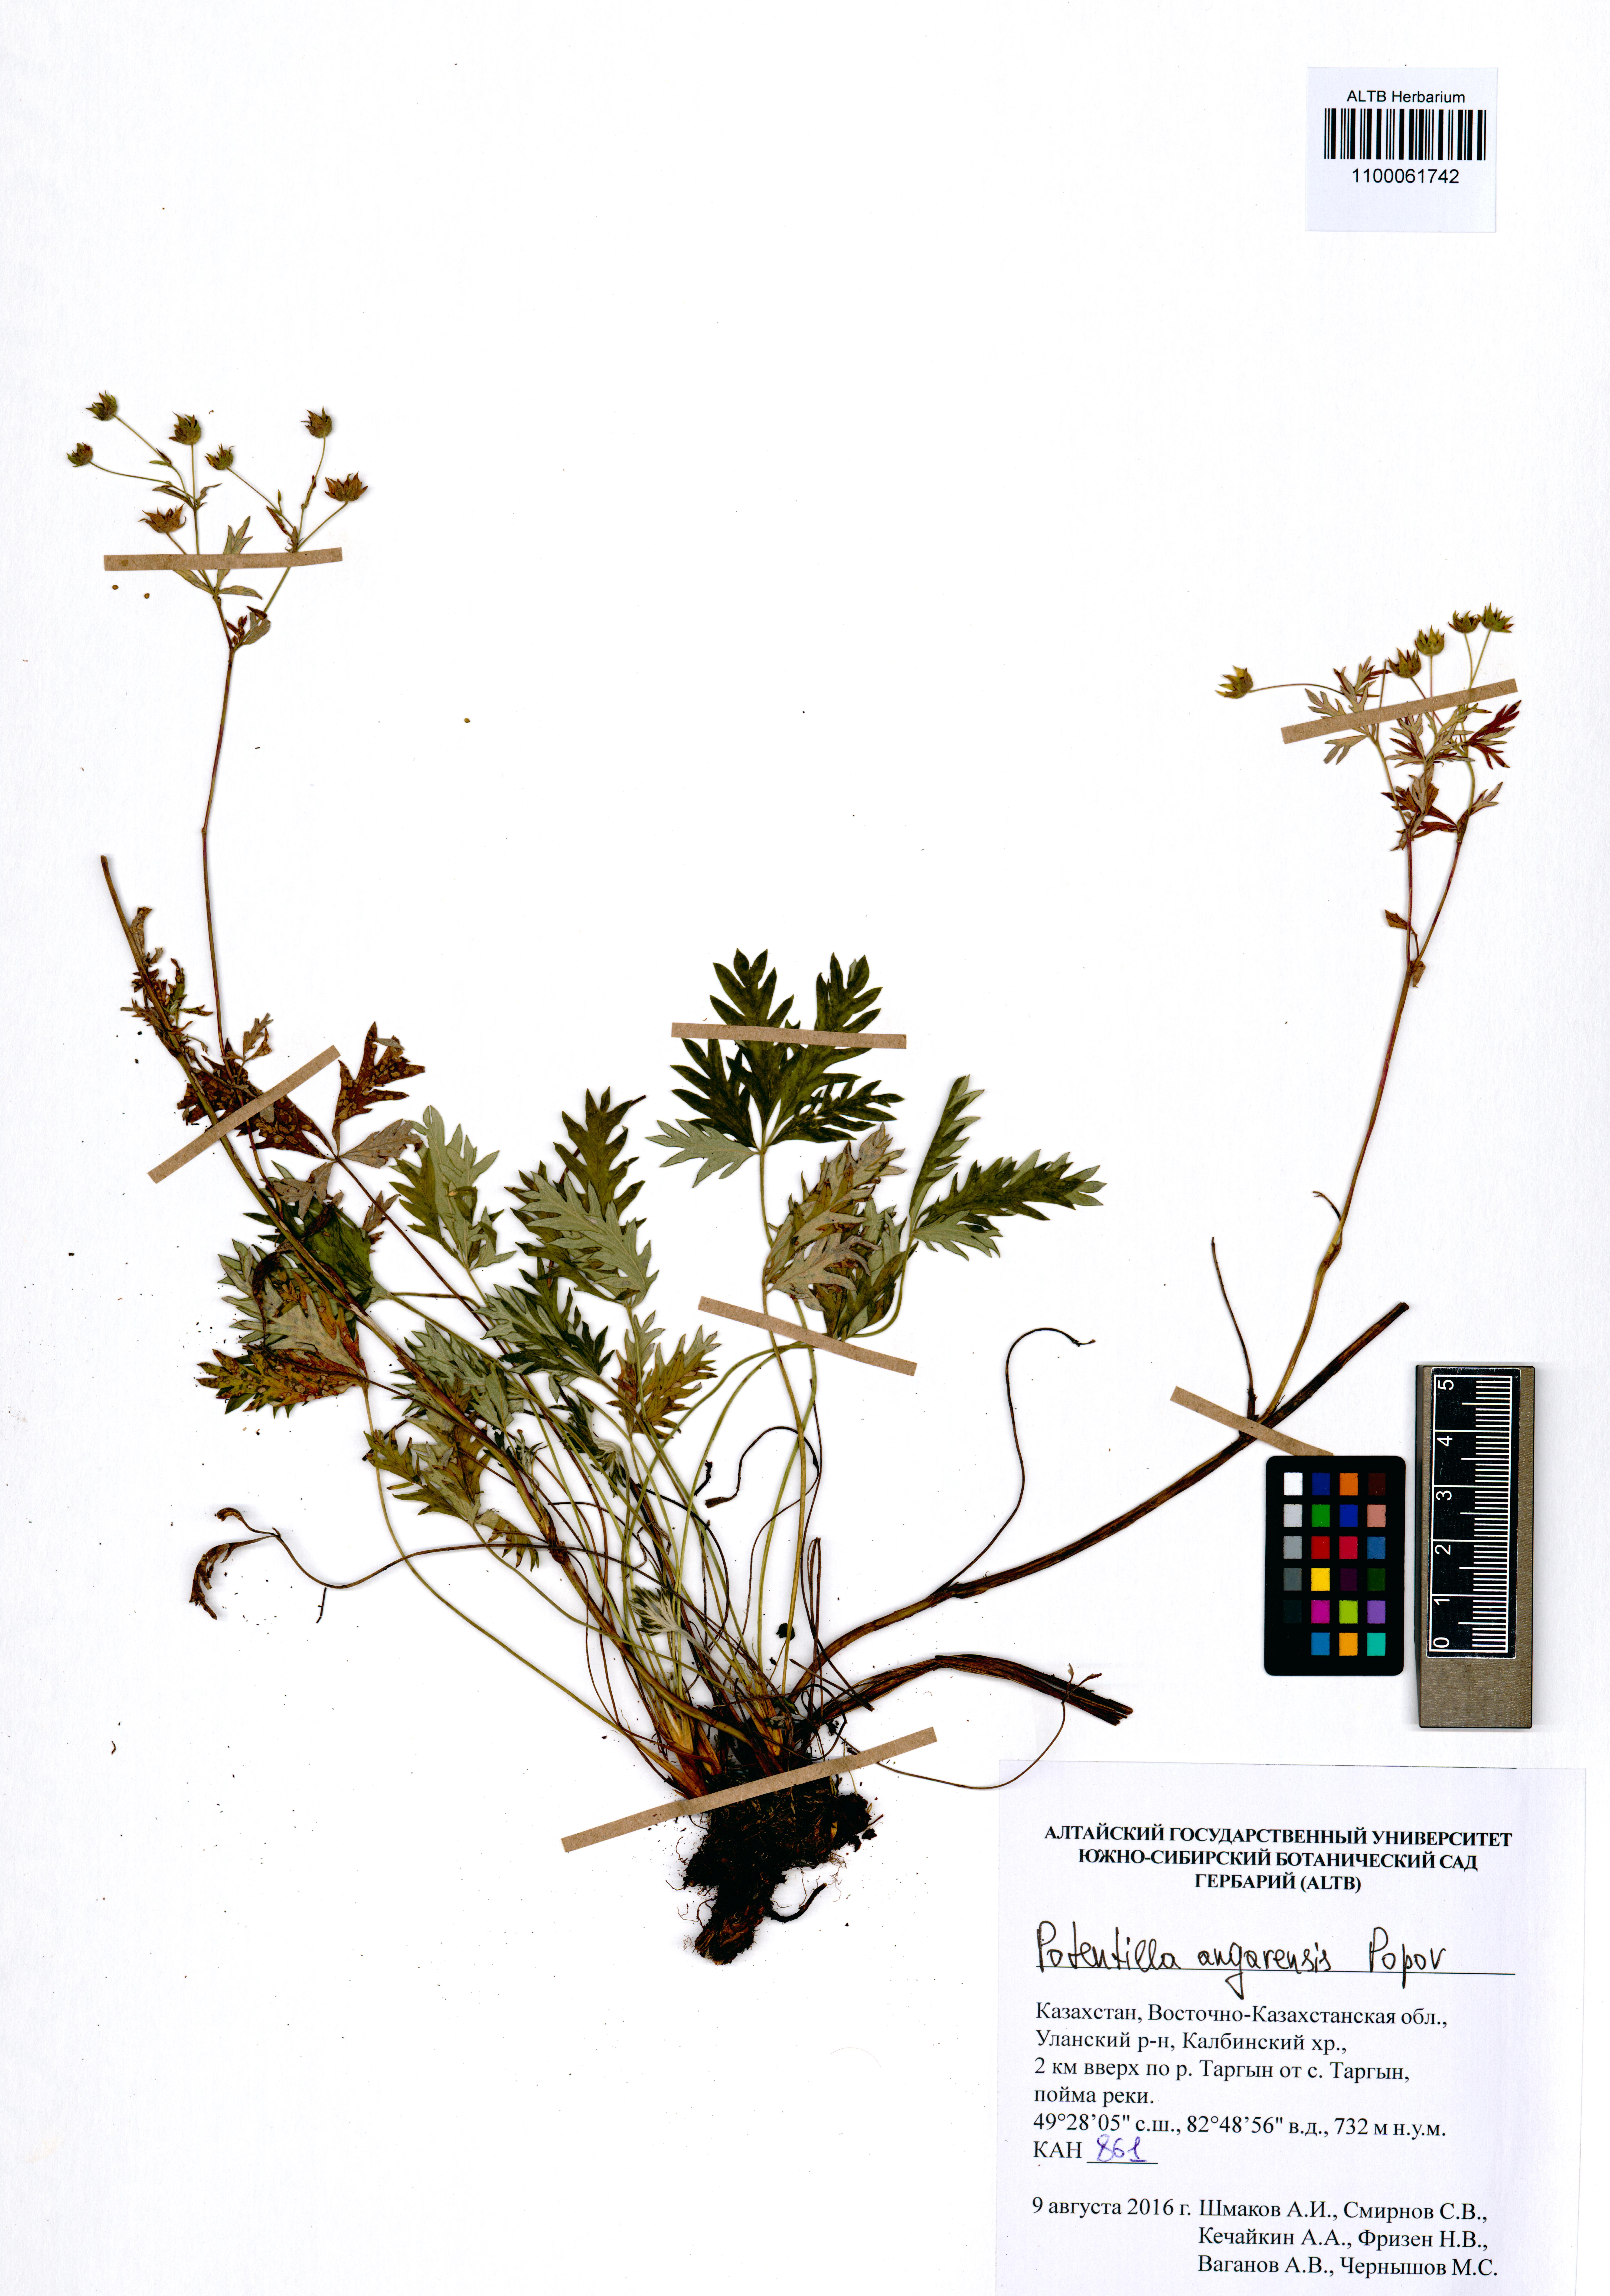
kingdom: Plantae
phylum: Tracheophyta
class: Magnoliopsida
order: Rosales
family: Rosaceae
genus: Potentilla
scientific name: Potentilla angarensis
